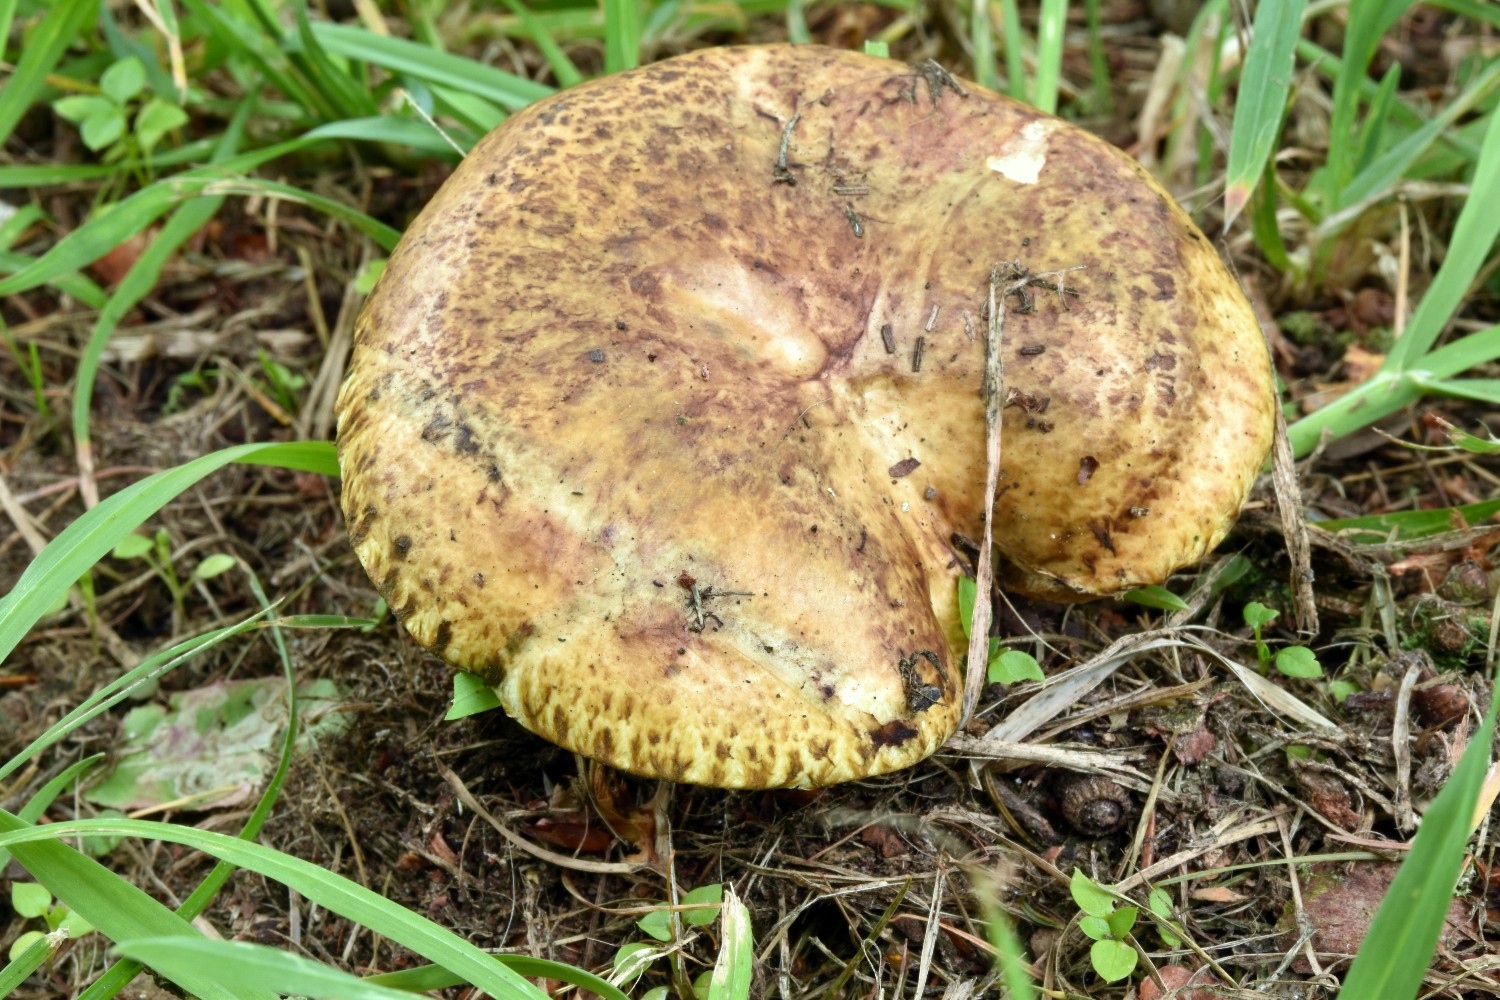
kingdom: Fungi
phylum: Basidiomycota
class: Agaricomycetes
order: Boletales
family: Suillaceae
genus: Suillus
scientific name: Suillus viscidus
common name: olivengrå slimrørhat
